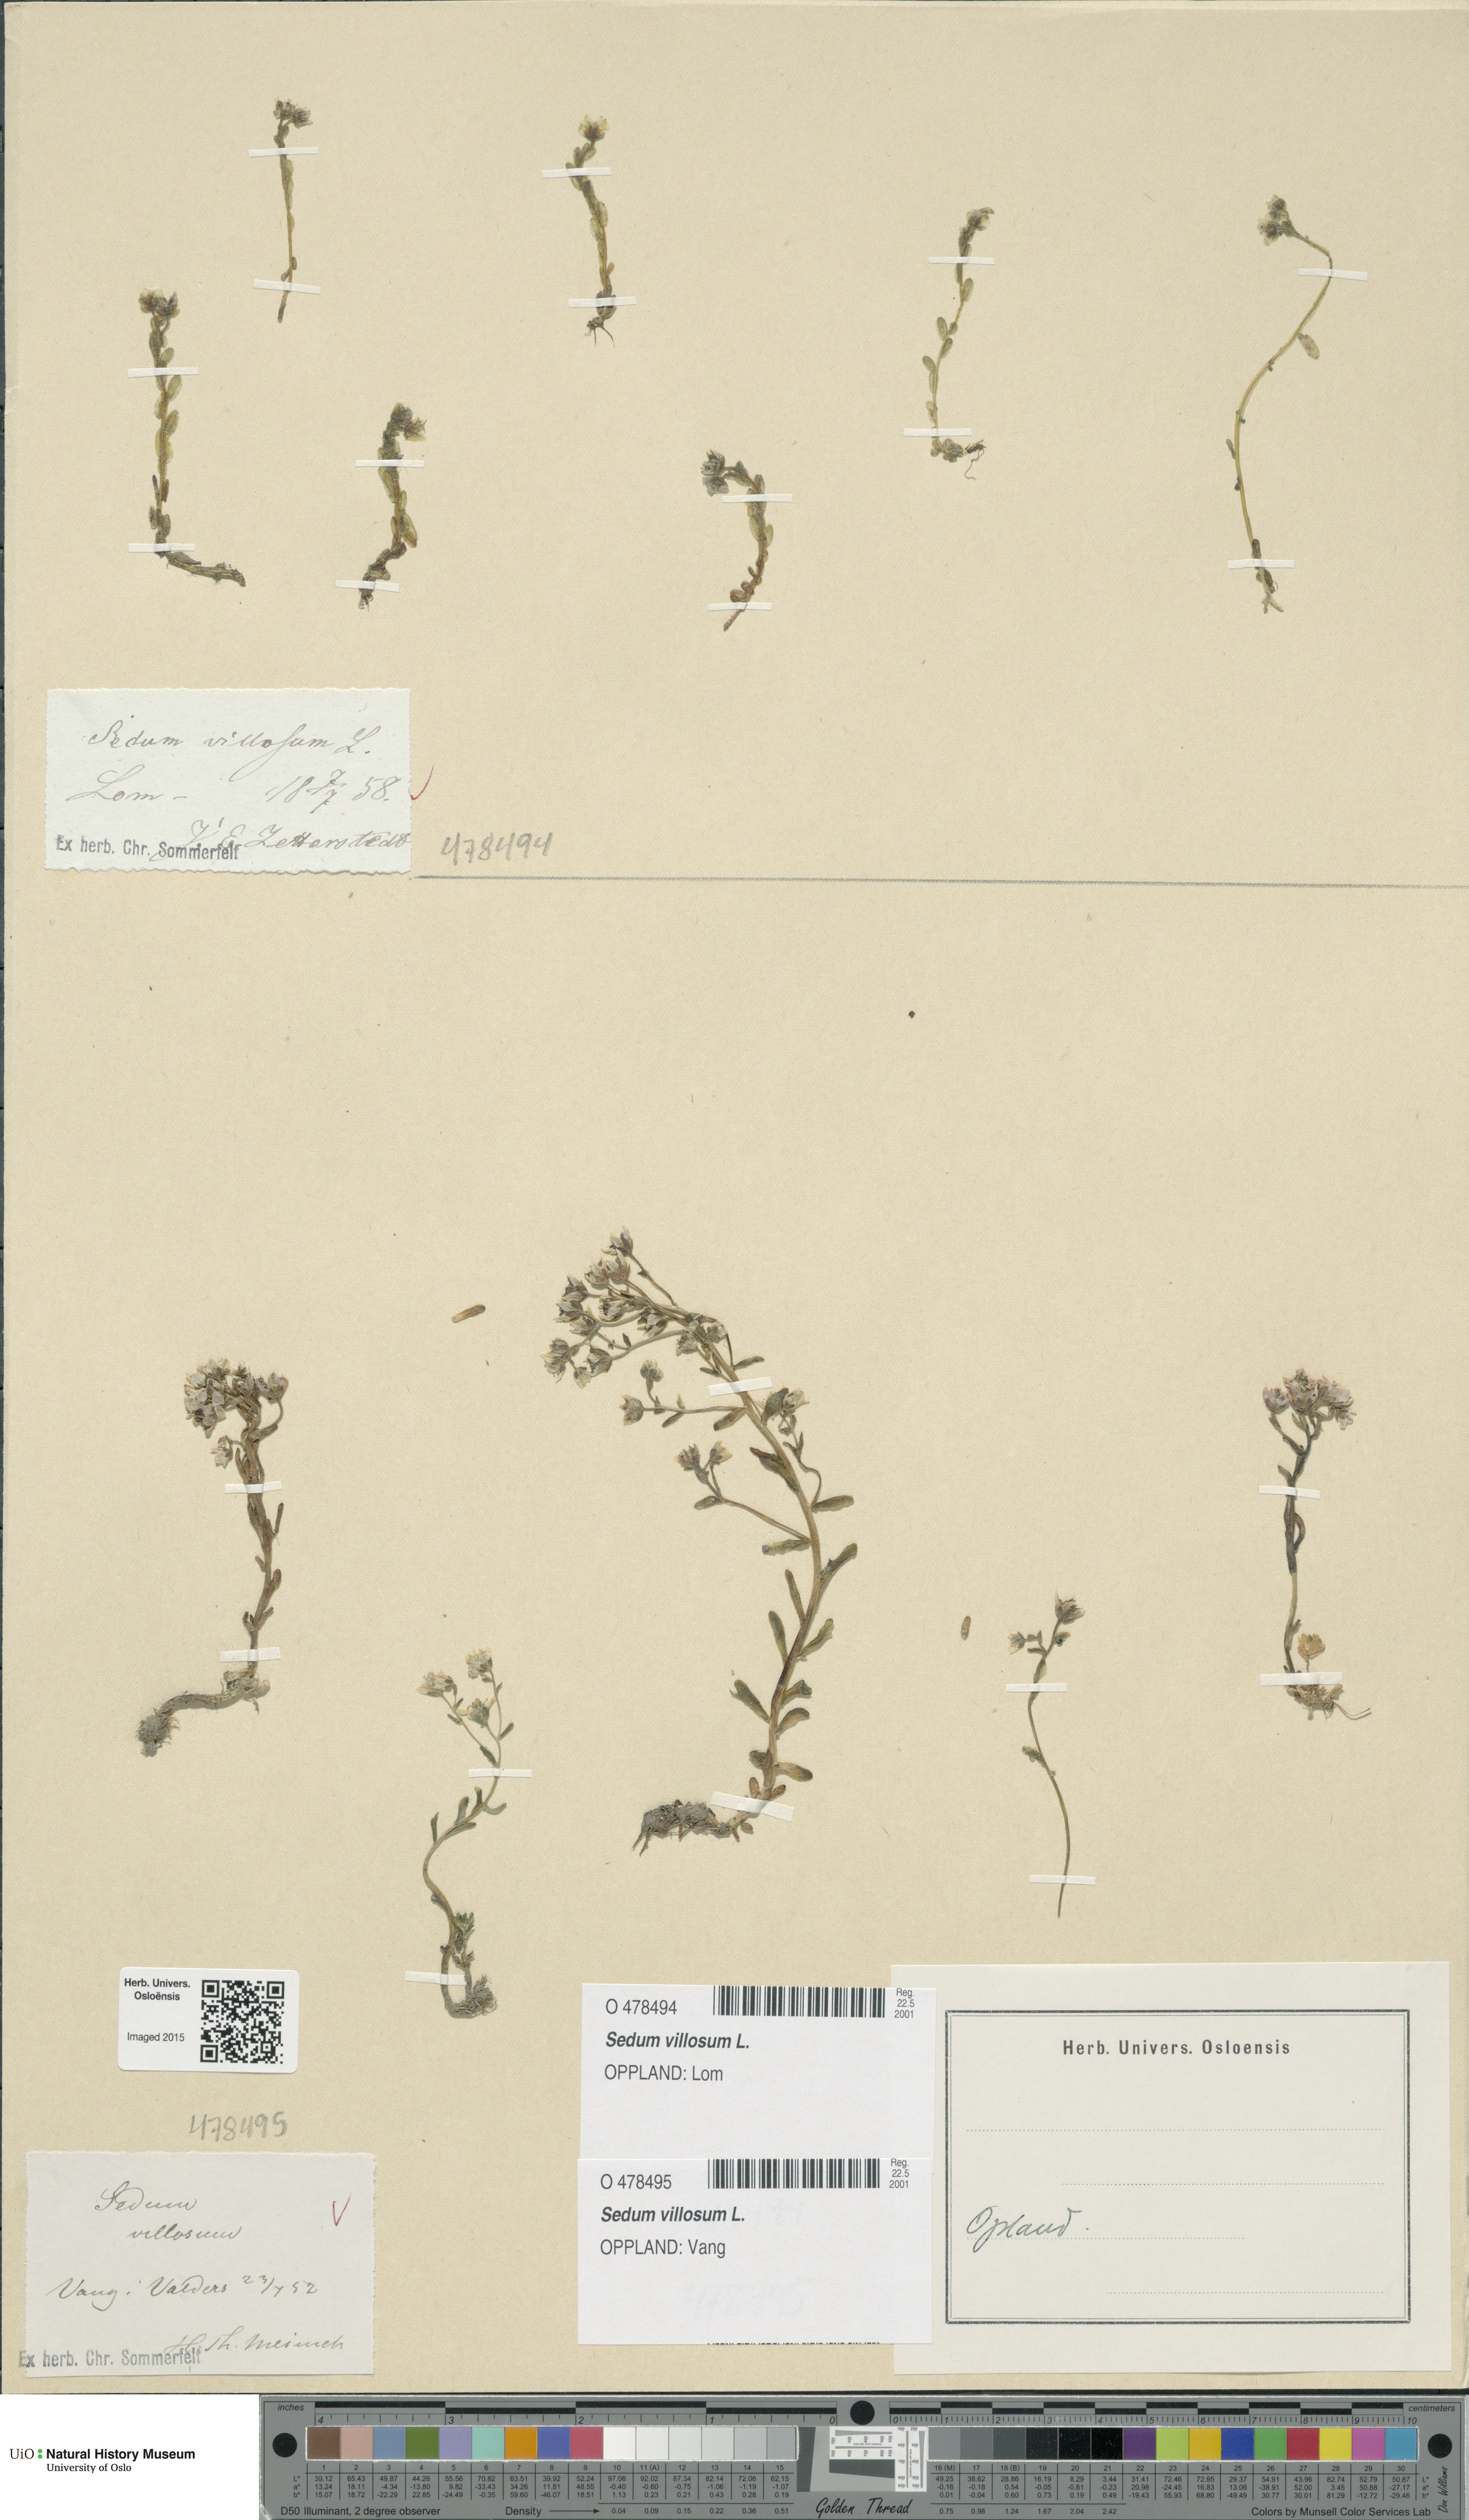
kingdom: Plantae
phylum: Tracheophyta
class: Magnoliopsida
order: Saxifragales
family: Crassulaceae
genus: Sedum
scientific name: Sedum villosum
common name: Hairy stonecrop
